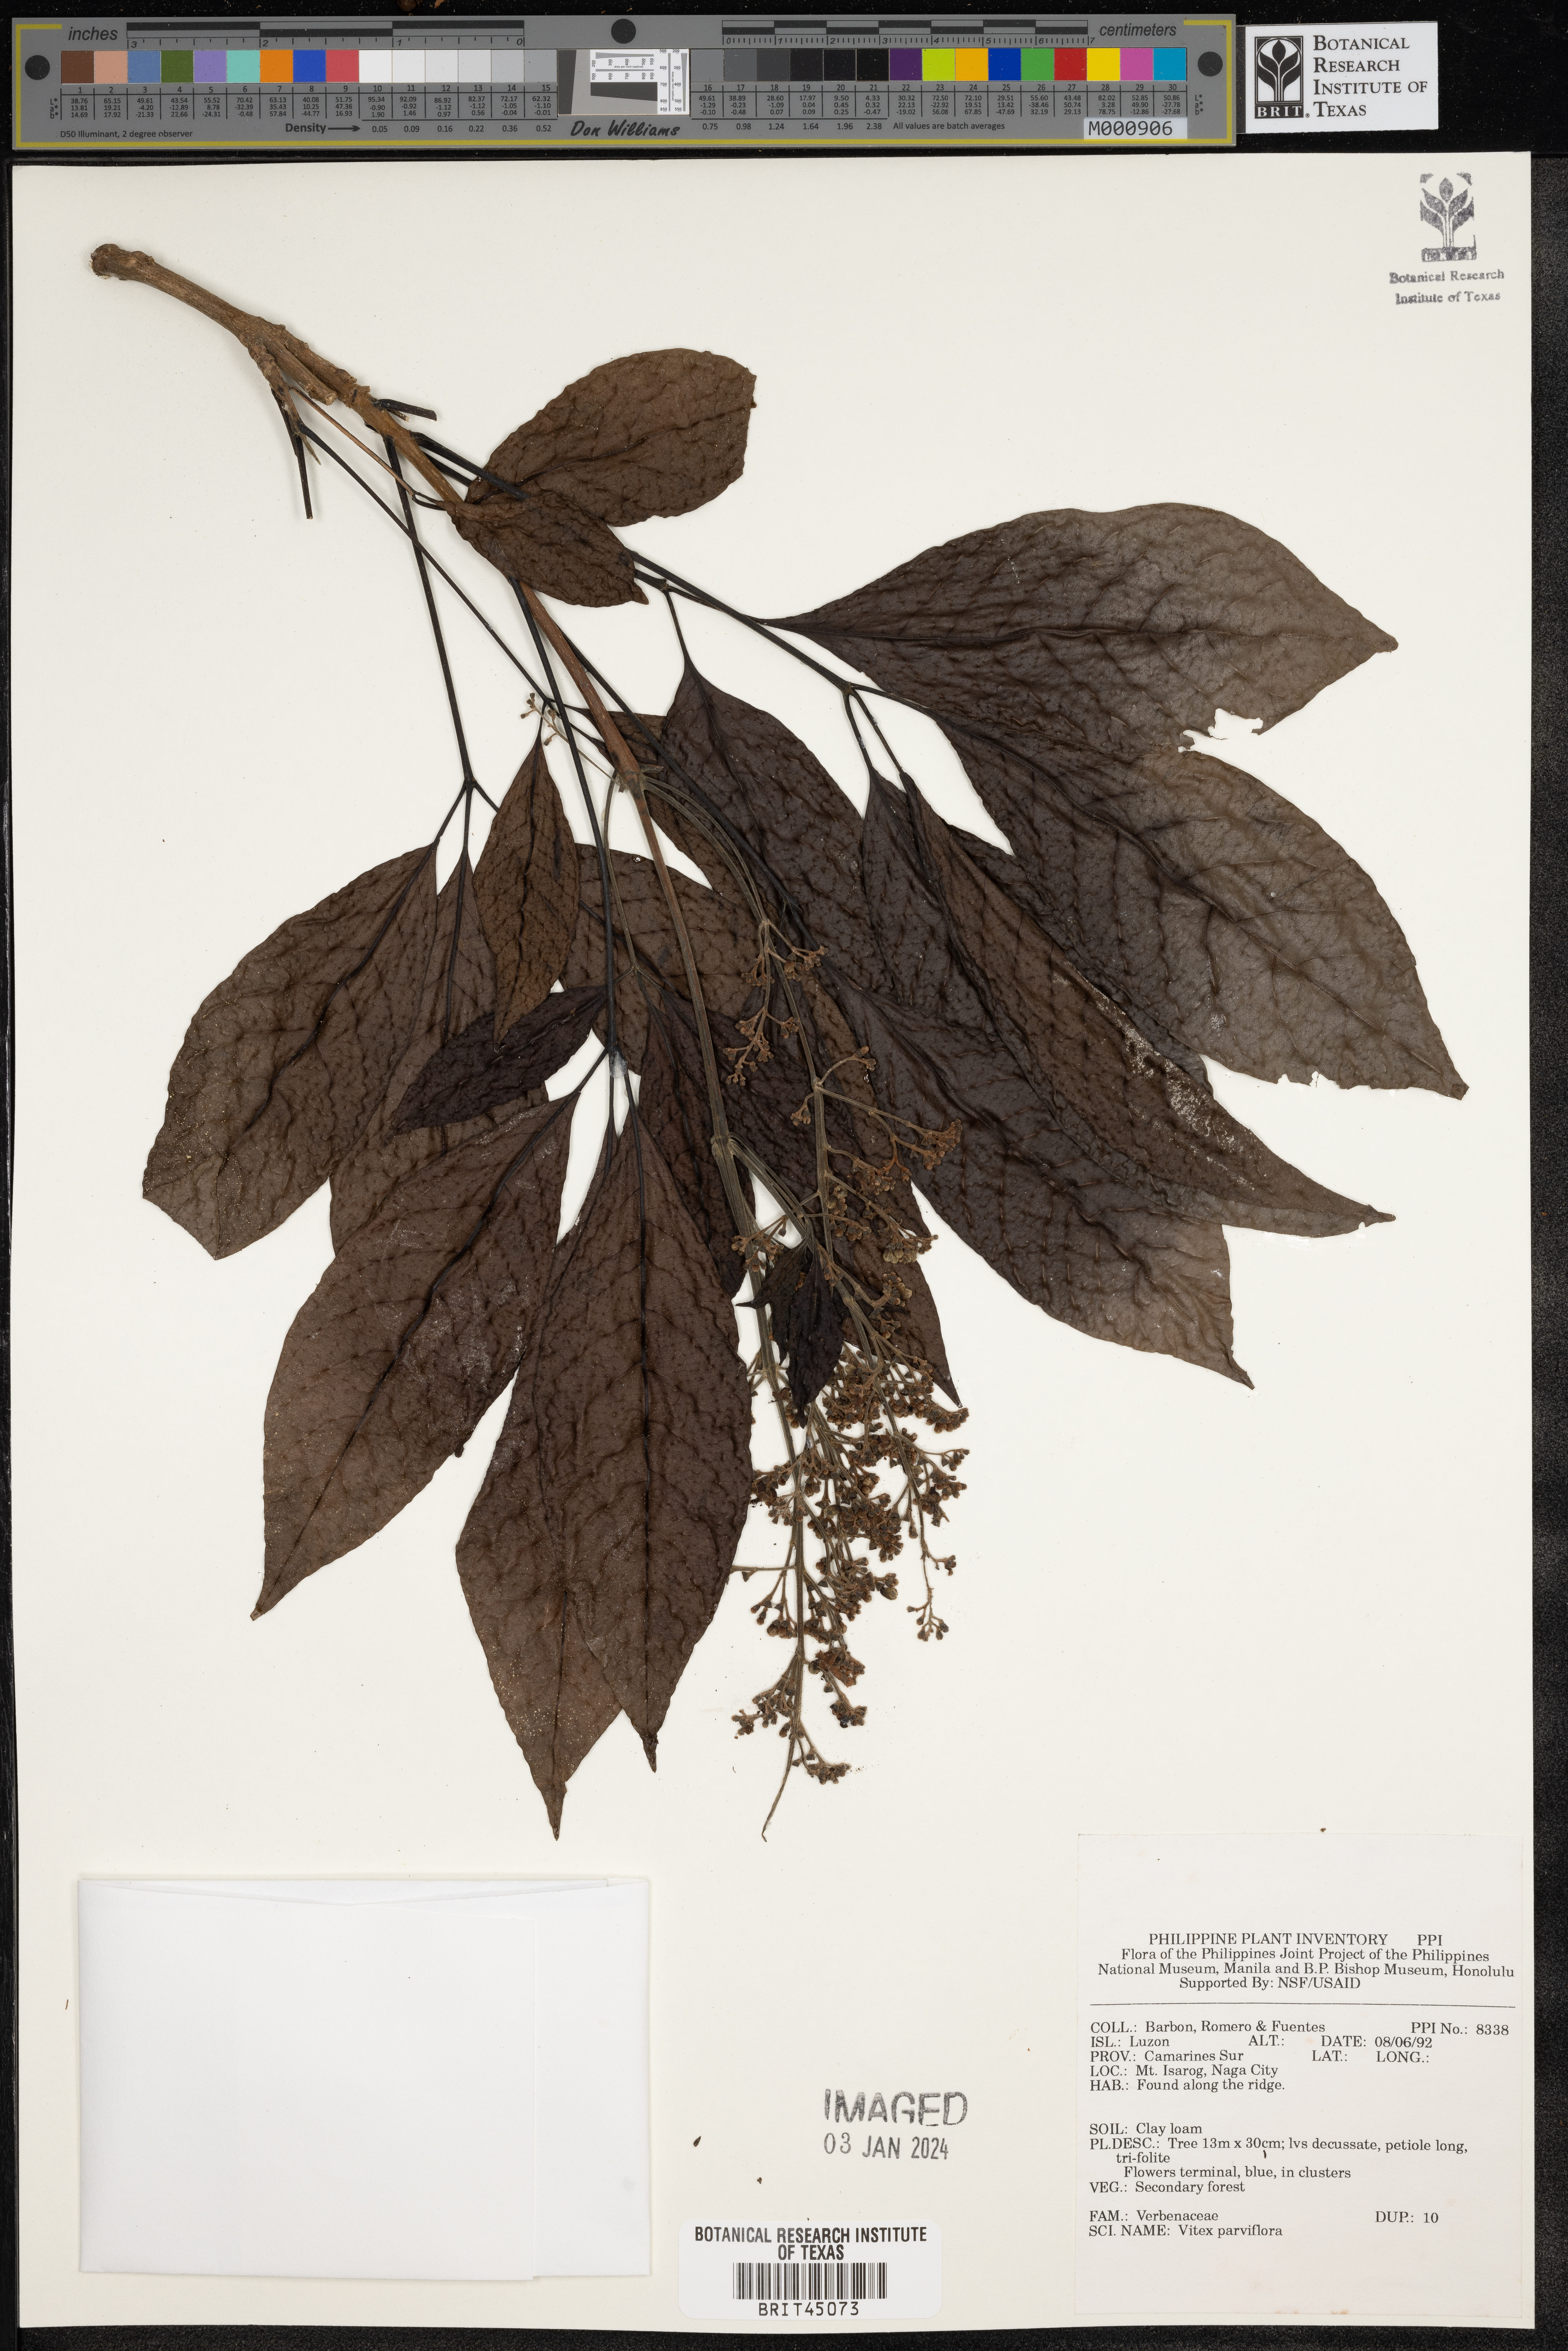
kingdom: Plantae
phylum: Tracheophyta
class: Magnoliopsida
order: Lamiales
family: Lamiaceae
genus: Vitex
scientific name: Vitex parviflora
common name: Smallflower chastetree
